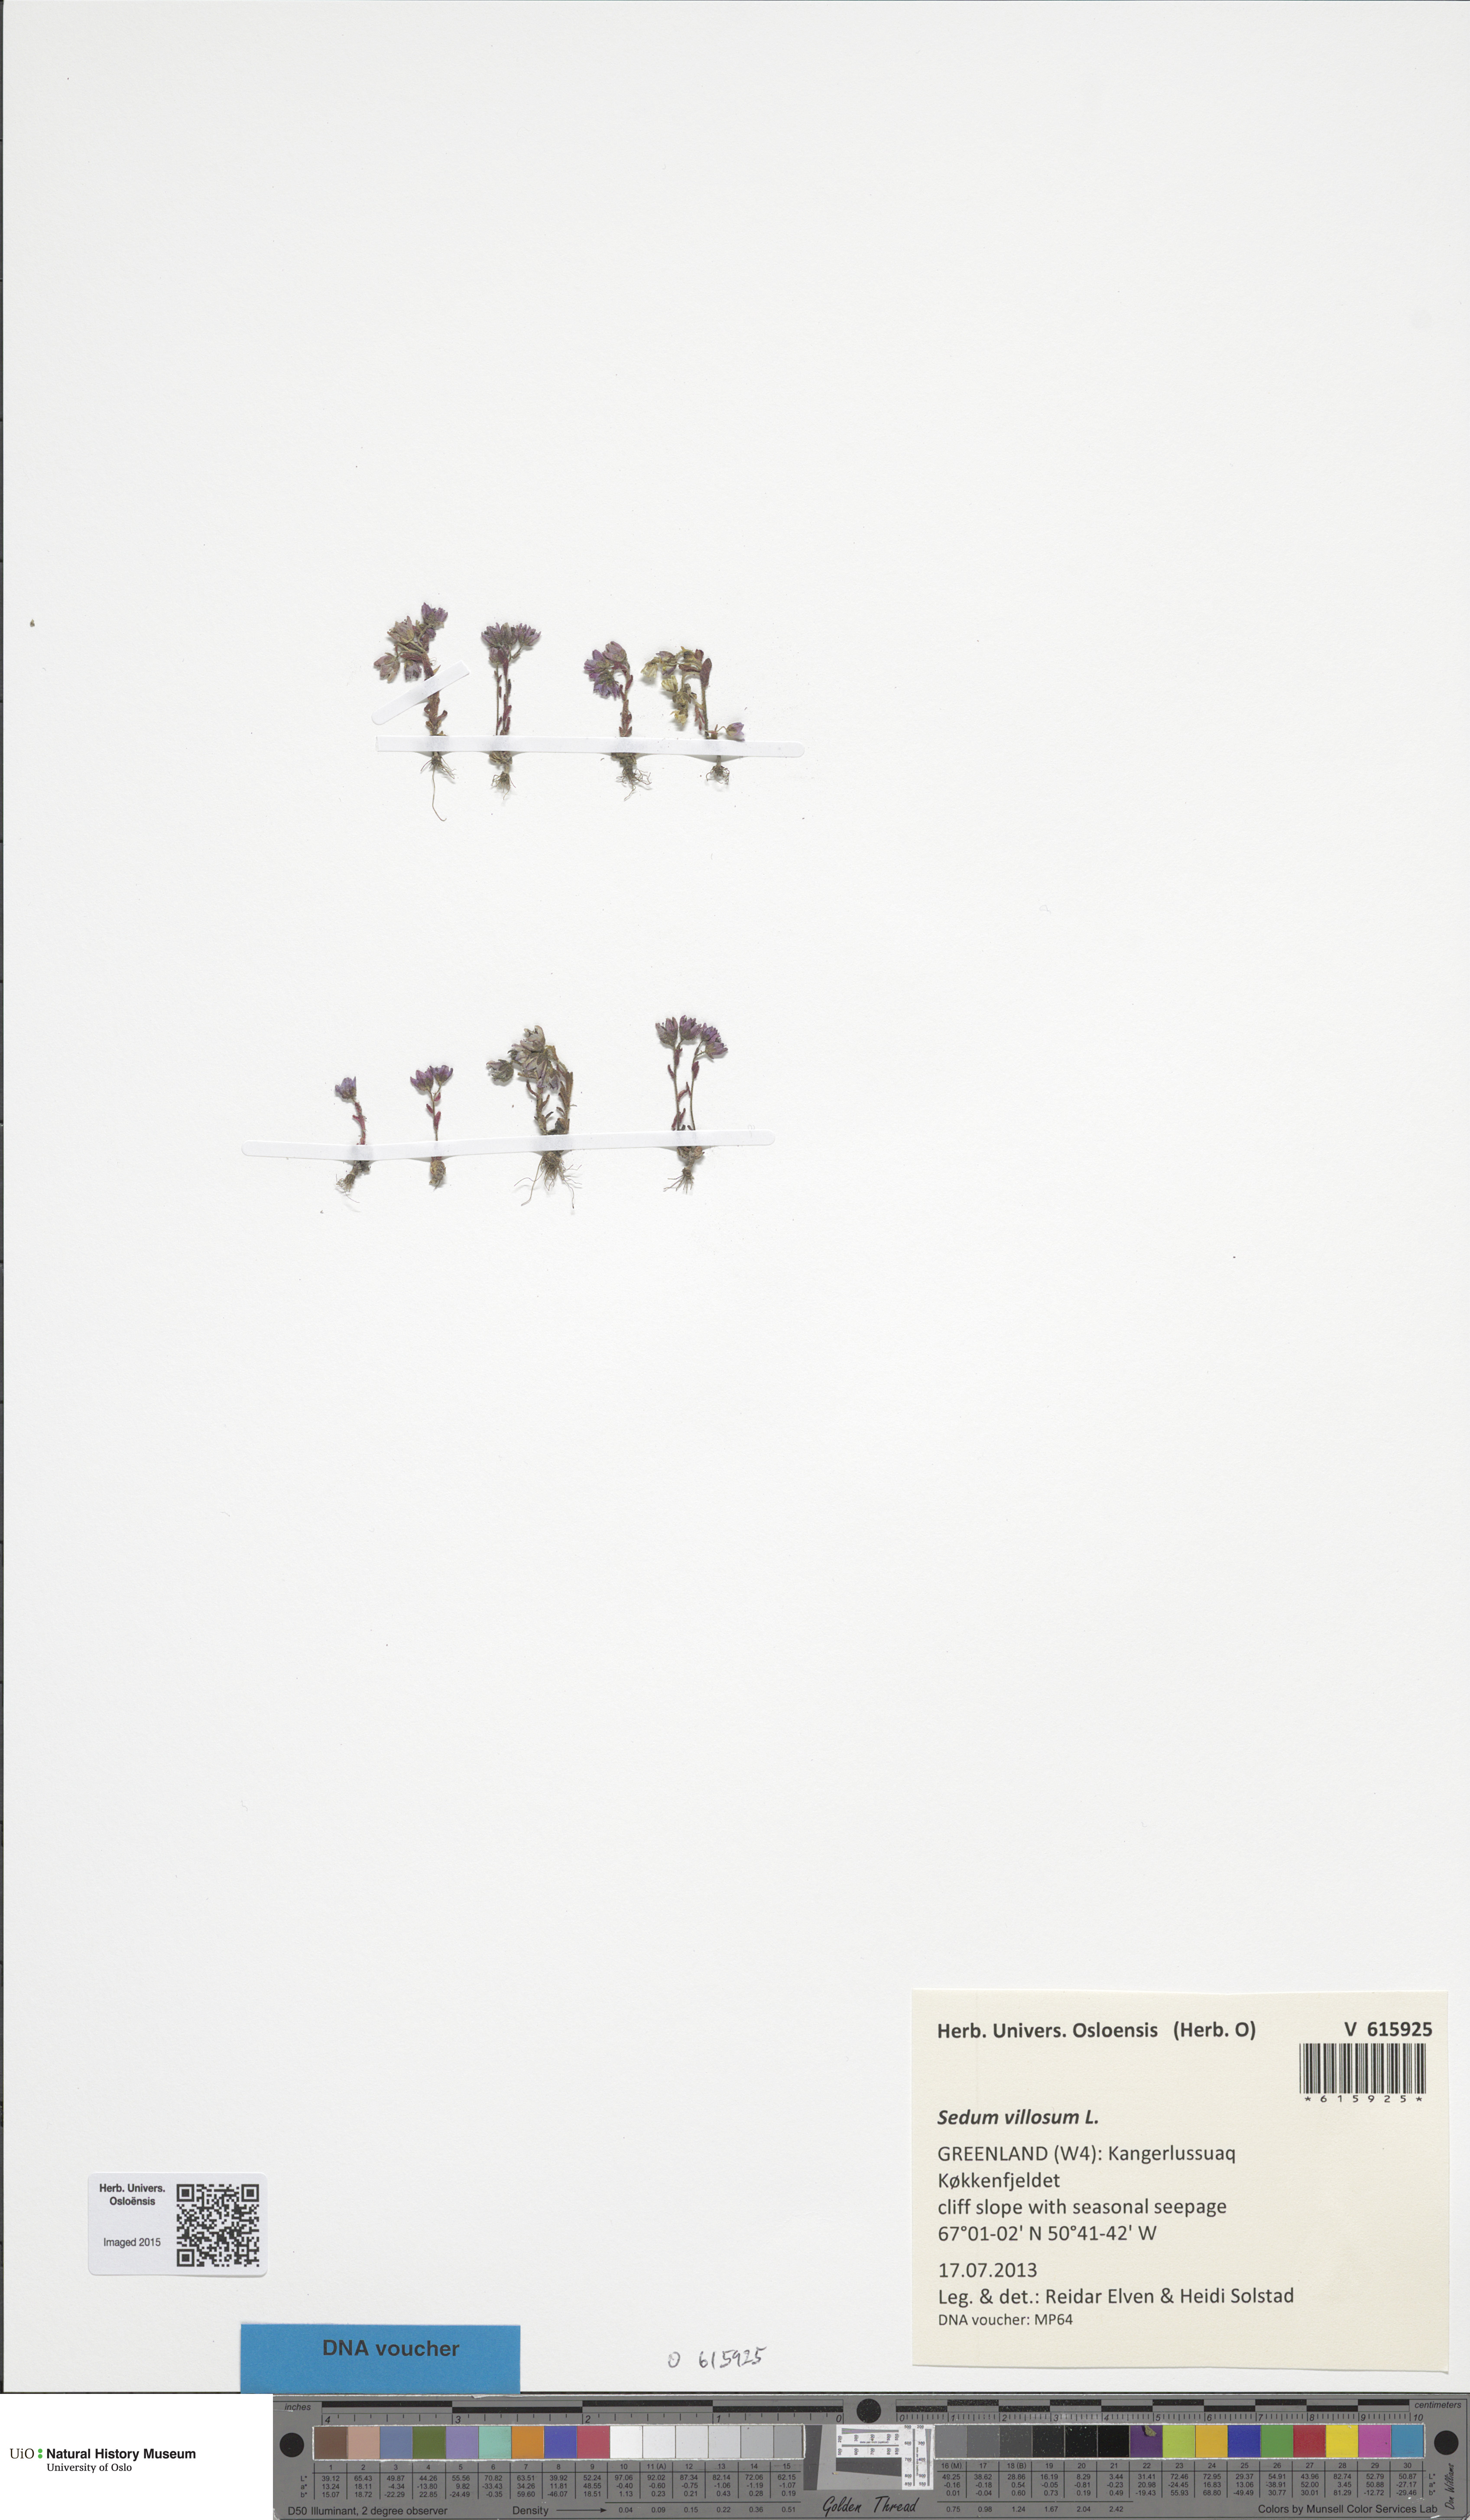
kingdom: Plantae
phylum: Tracheophyta
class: Magnoliopsida
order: Saxifragales
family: Crassulaceae
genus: Sedum
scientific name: Sedum villosum
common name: Hairy stonecrop
